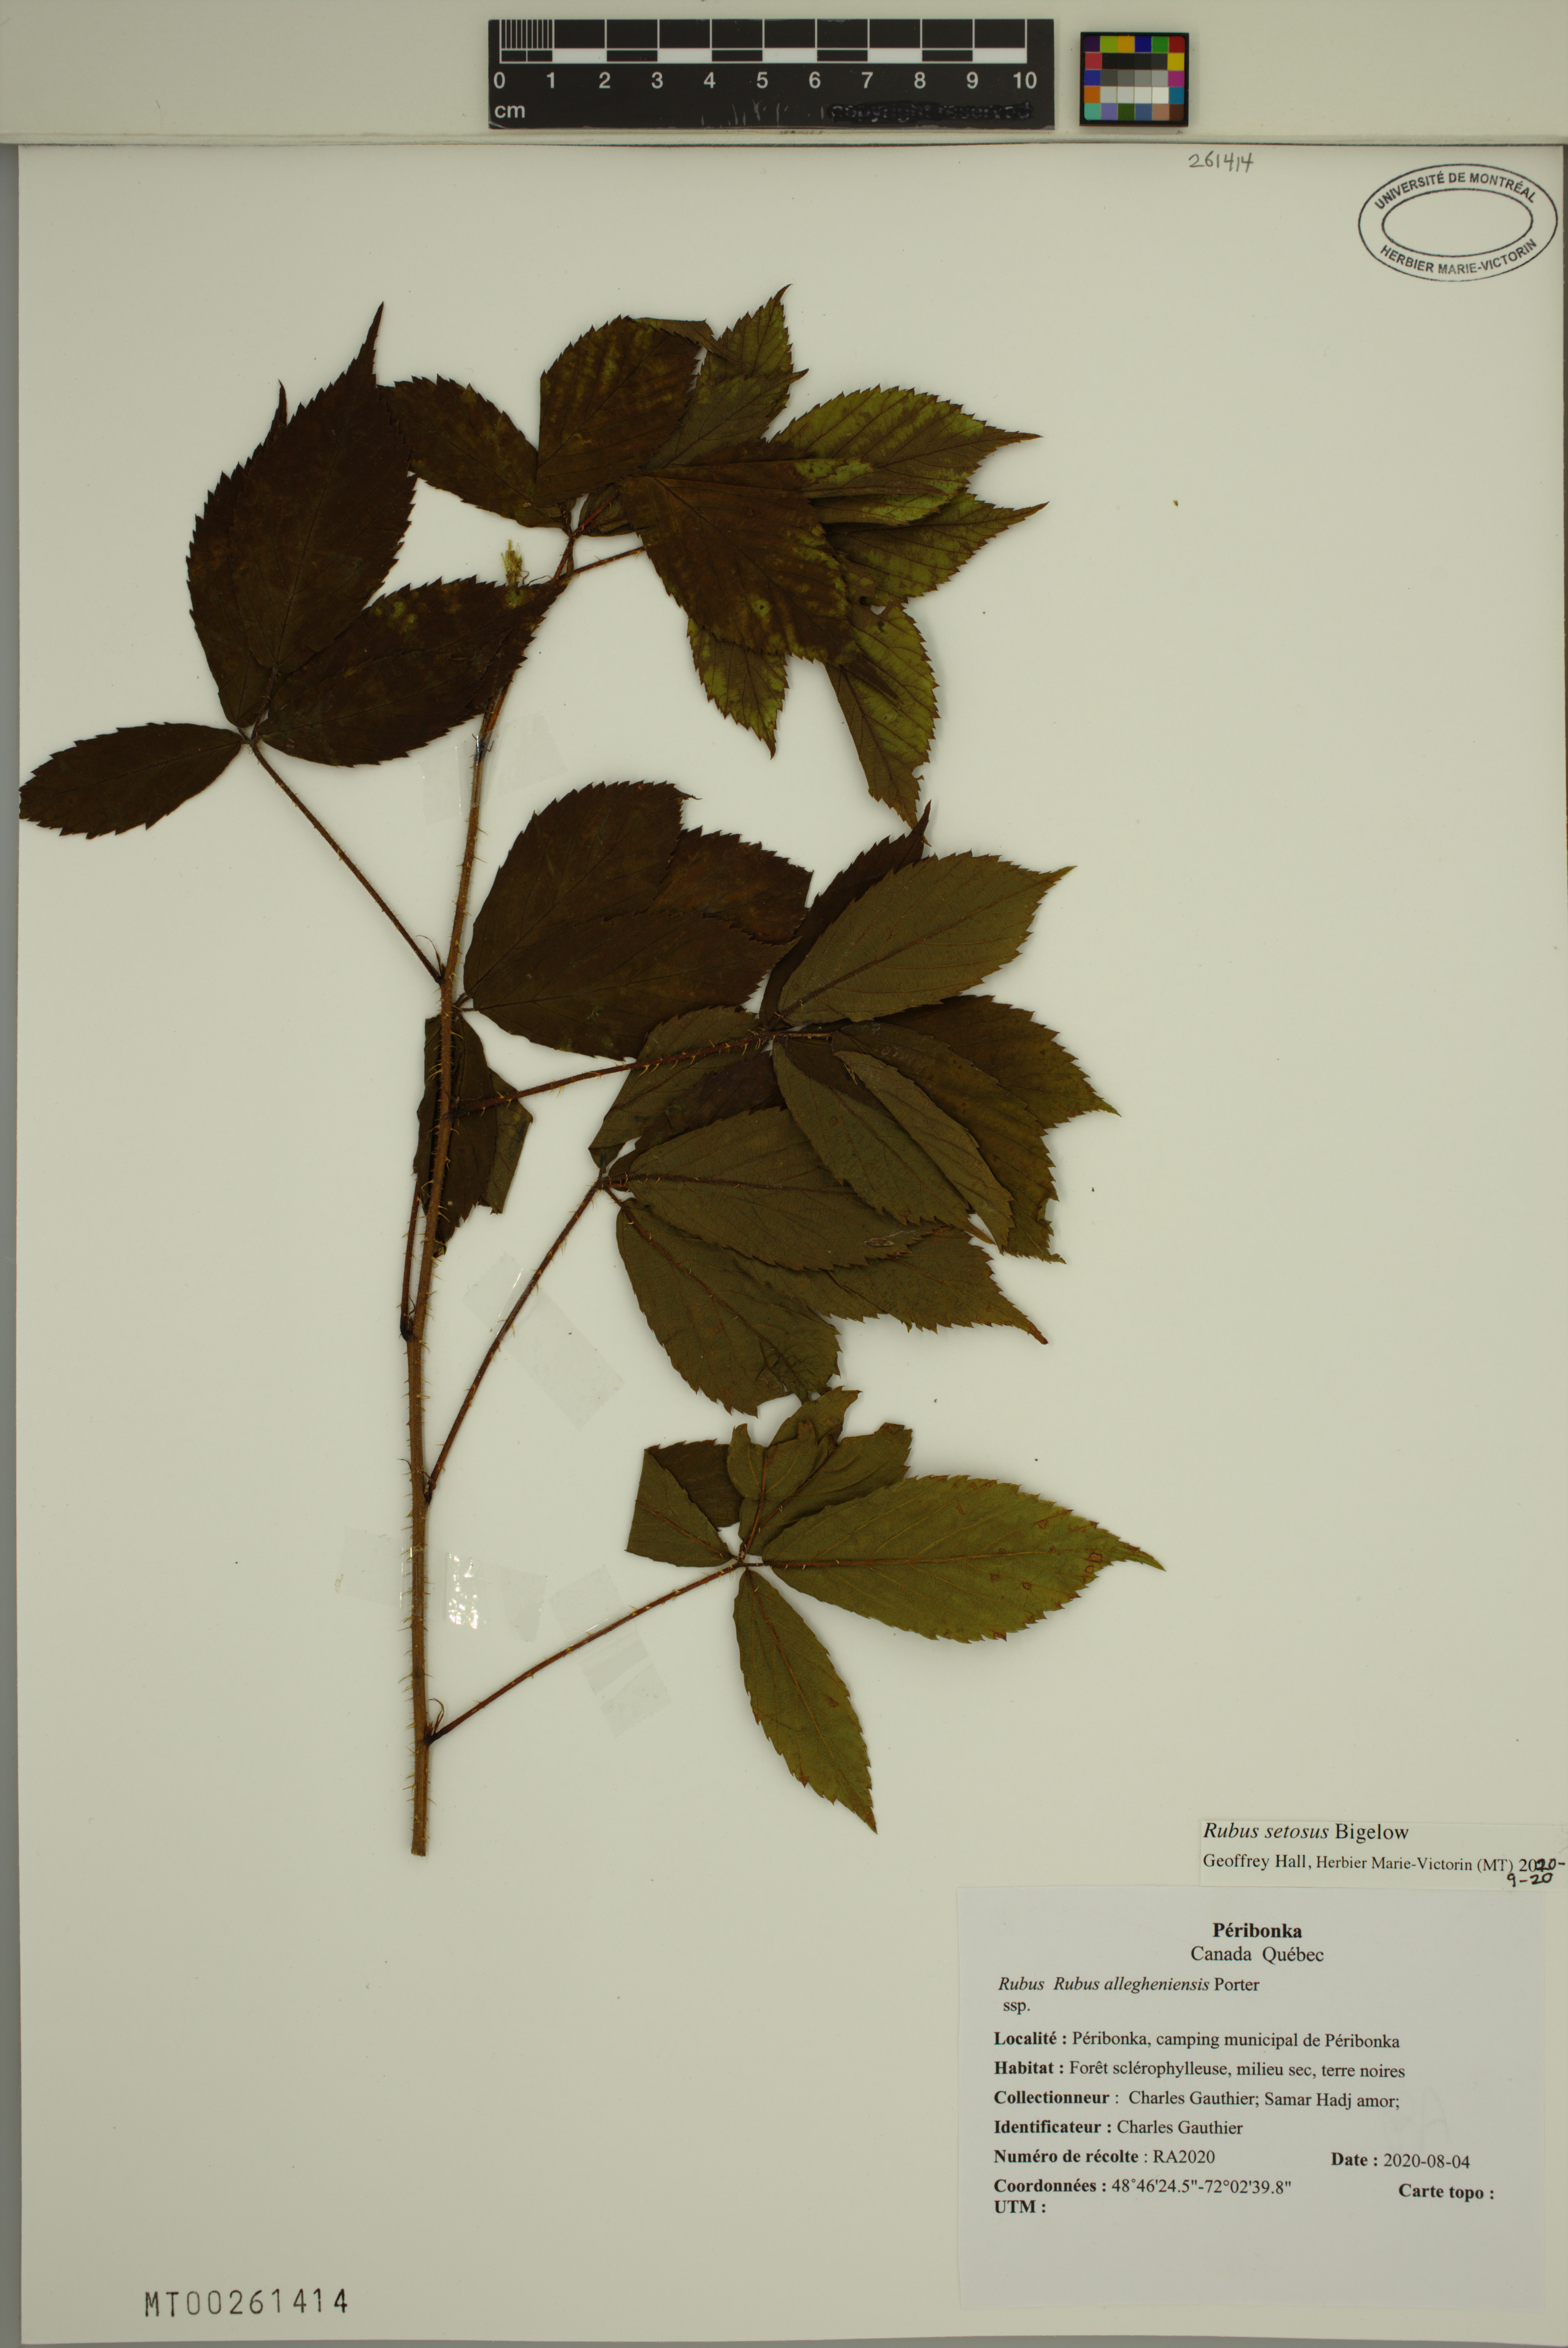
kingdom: Plantae
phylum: Tracheophyta
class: Magnoliopsida
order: Rosales
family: Rosaceae
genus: Rubus
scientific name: Rubus setosus
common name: Bristly blackberry
